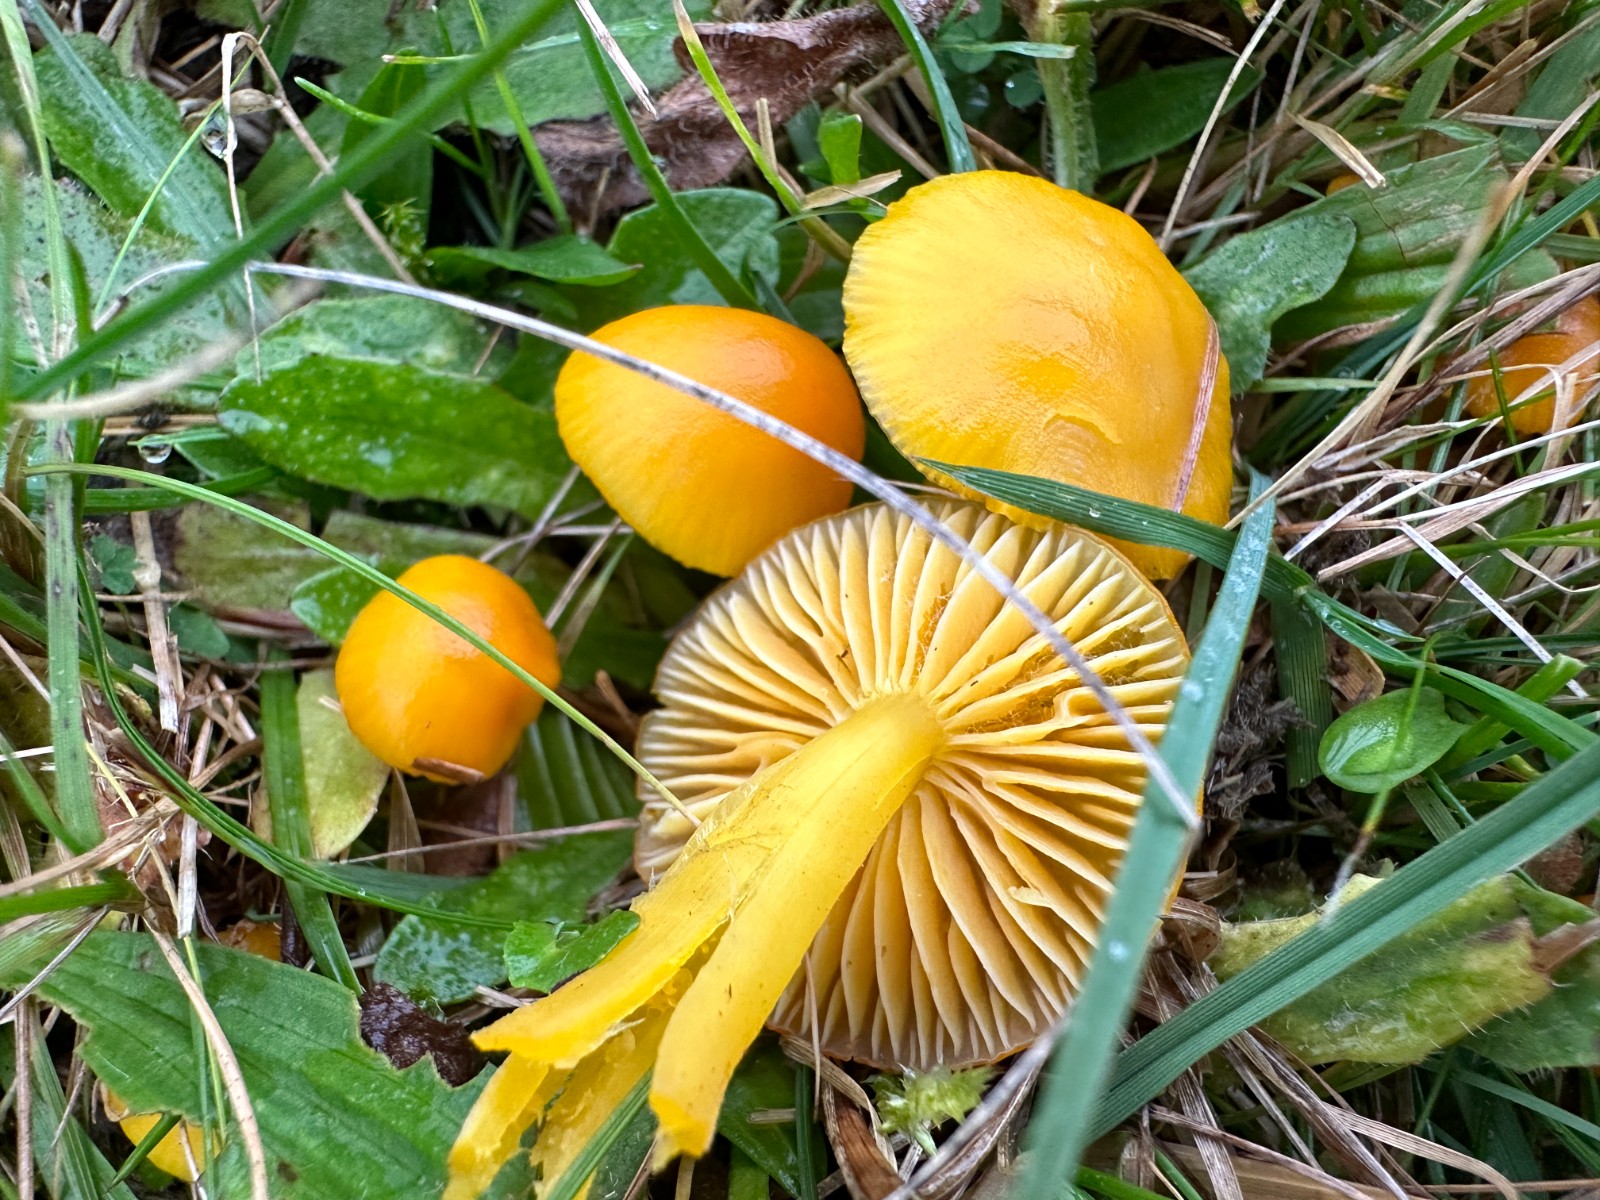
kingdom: Fungi
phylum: Basidiomycota
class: Agaricomycetes
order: Agaricales
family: Hygrophoraceae
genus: Hygrocybe
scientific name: Hygrocybe ceracea
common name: voksgul vokshat
